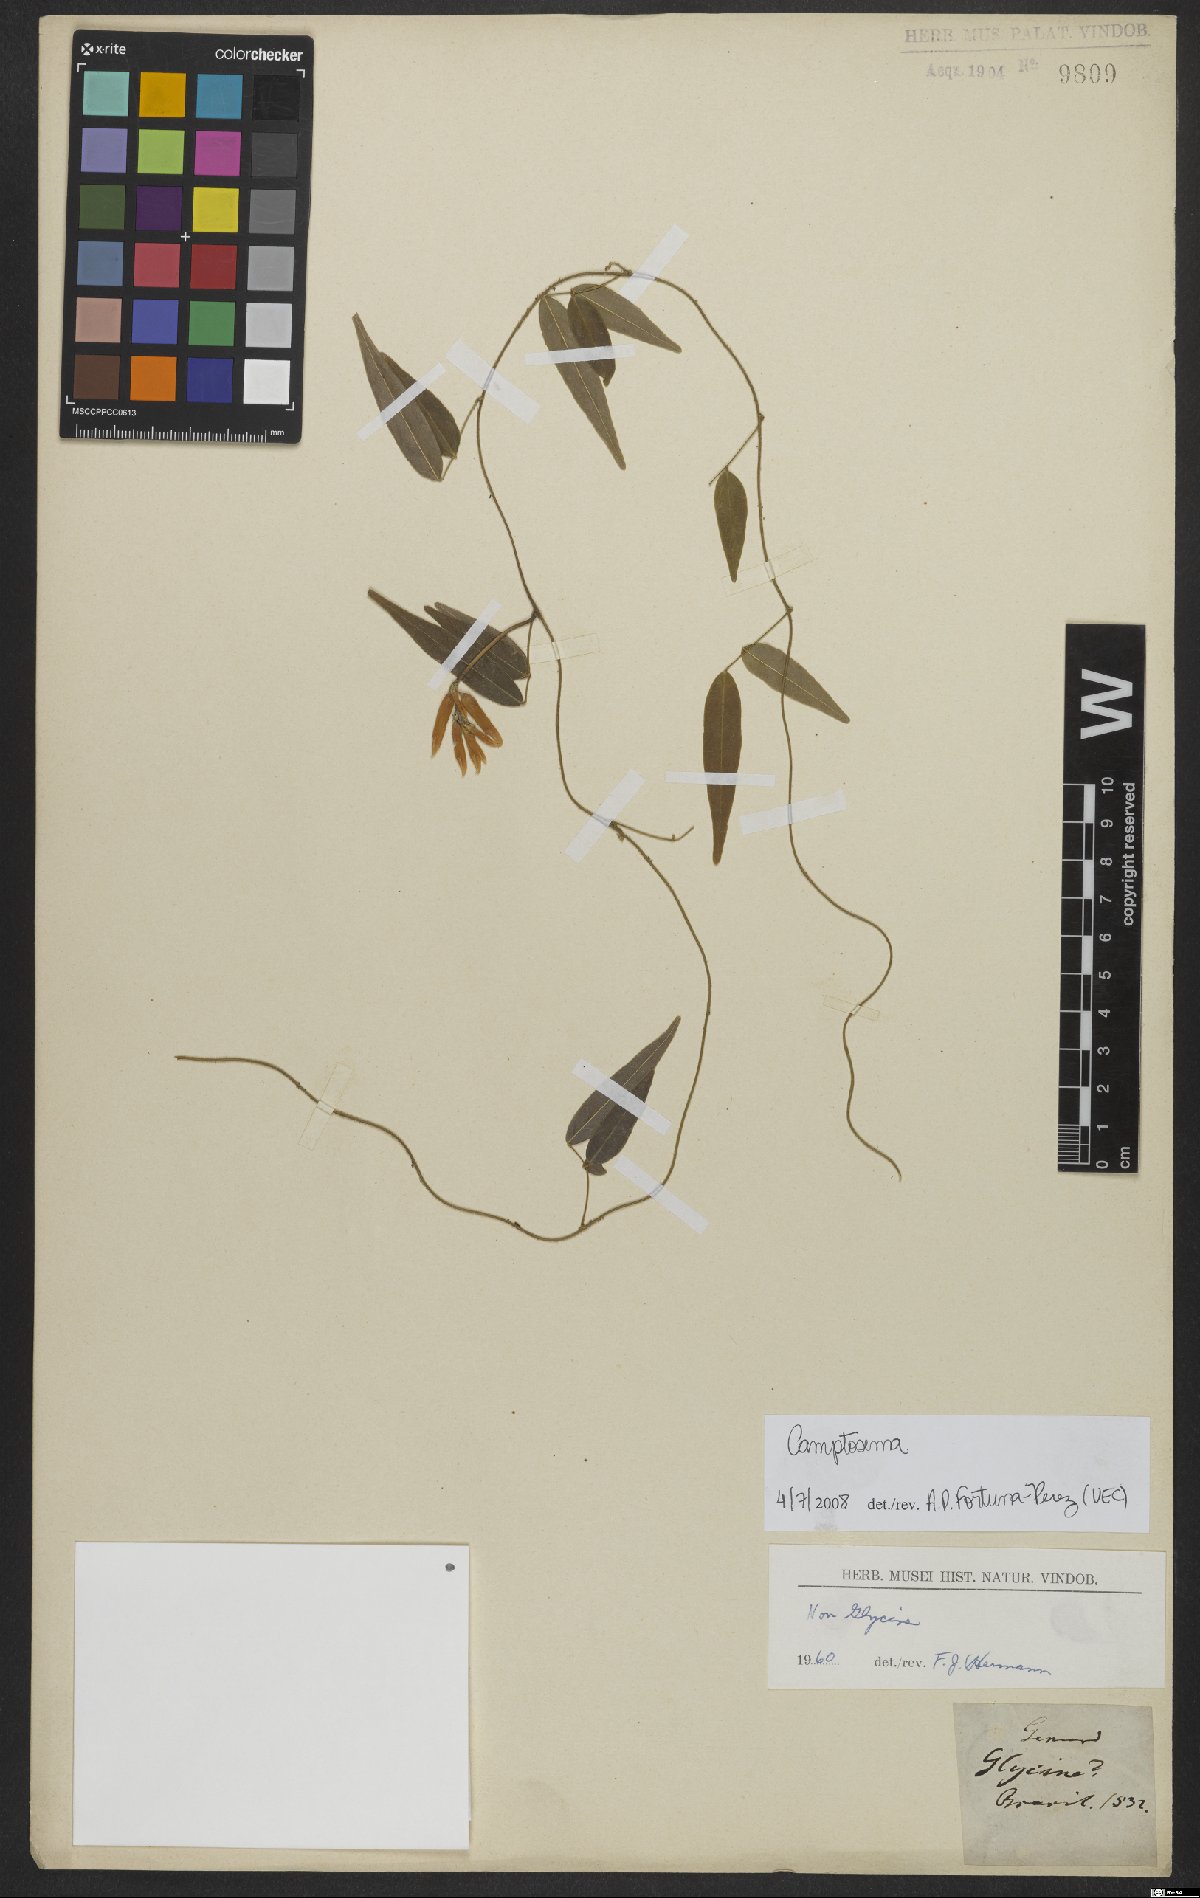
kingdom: Plantae
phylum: Tracheophyta
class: Magnoliopsida
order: Fabales
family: Fabaceae
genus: Camptosema
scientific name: Camptosema
